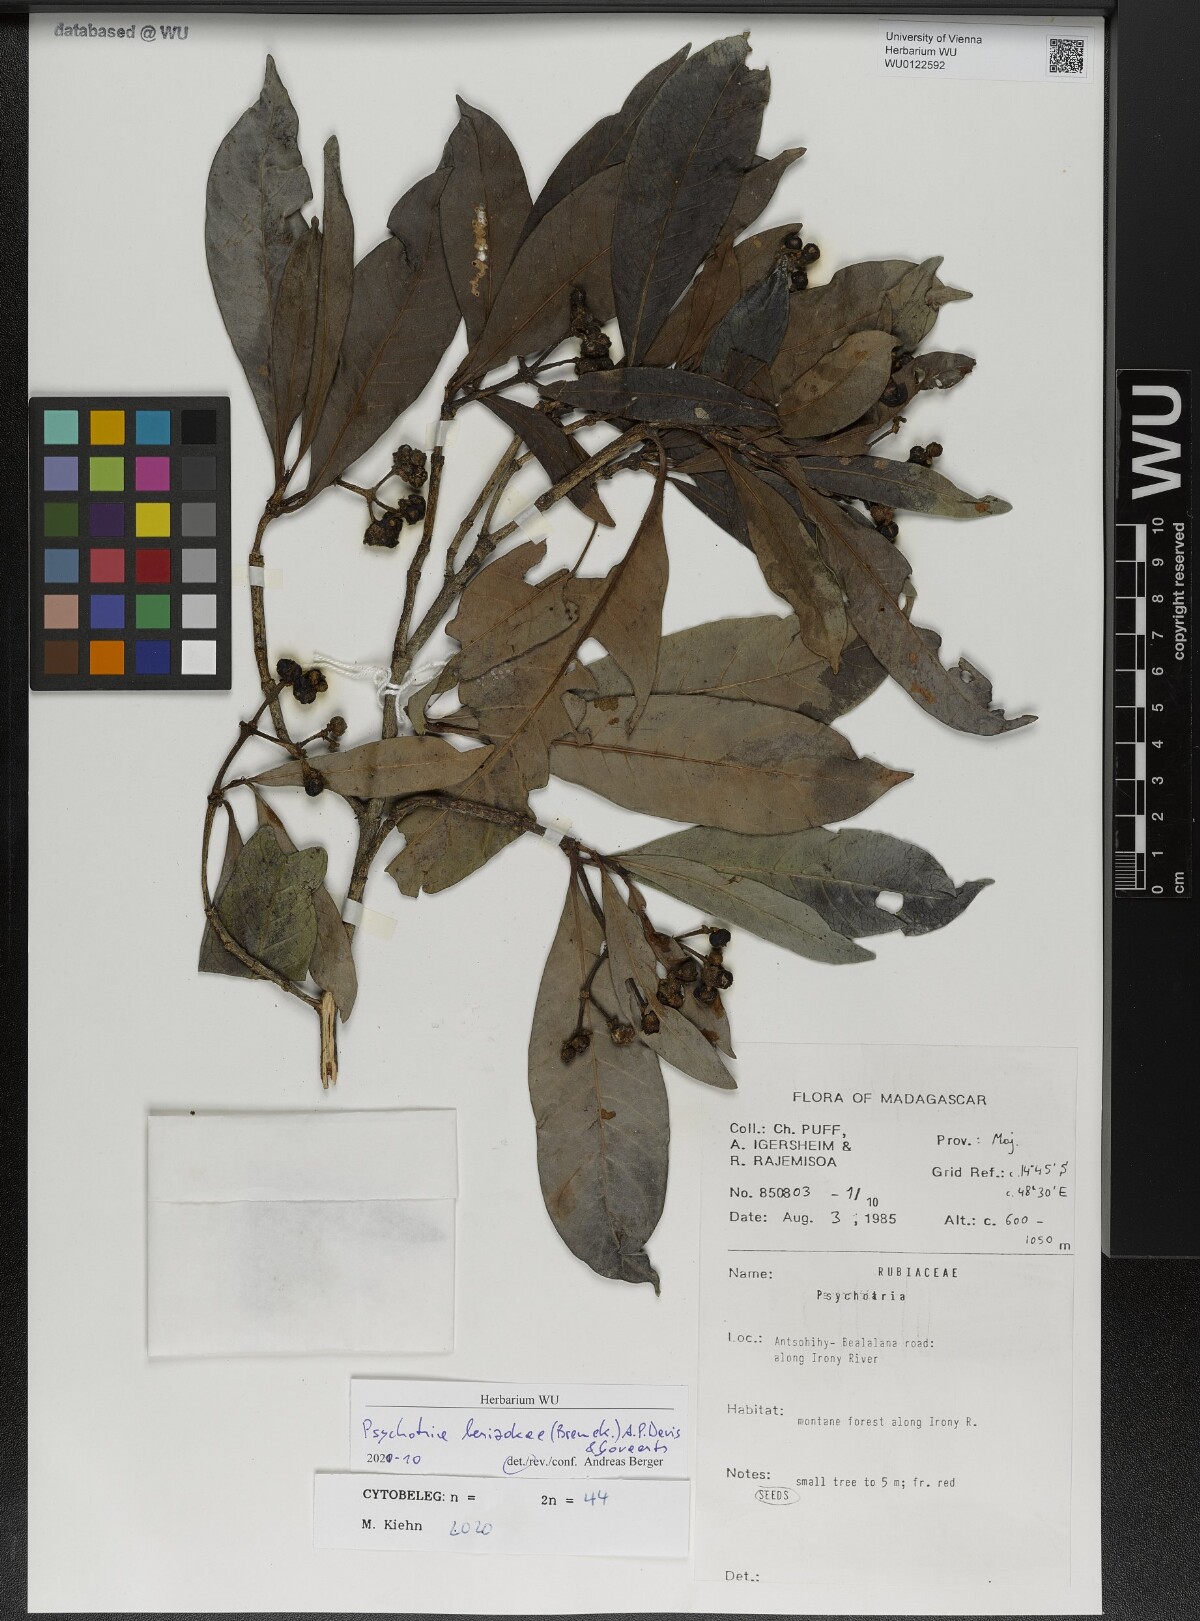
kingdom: Plantae
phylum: Tracheophyta
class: Magnoliopsida
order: Gentianales
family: Rubiaceae
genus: Psychotria
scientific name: Psychotria berizokae
